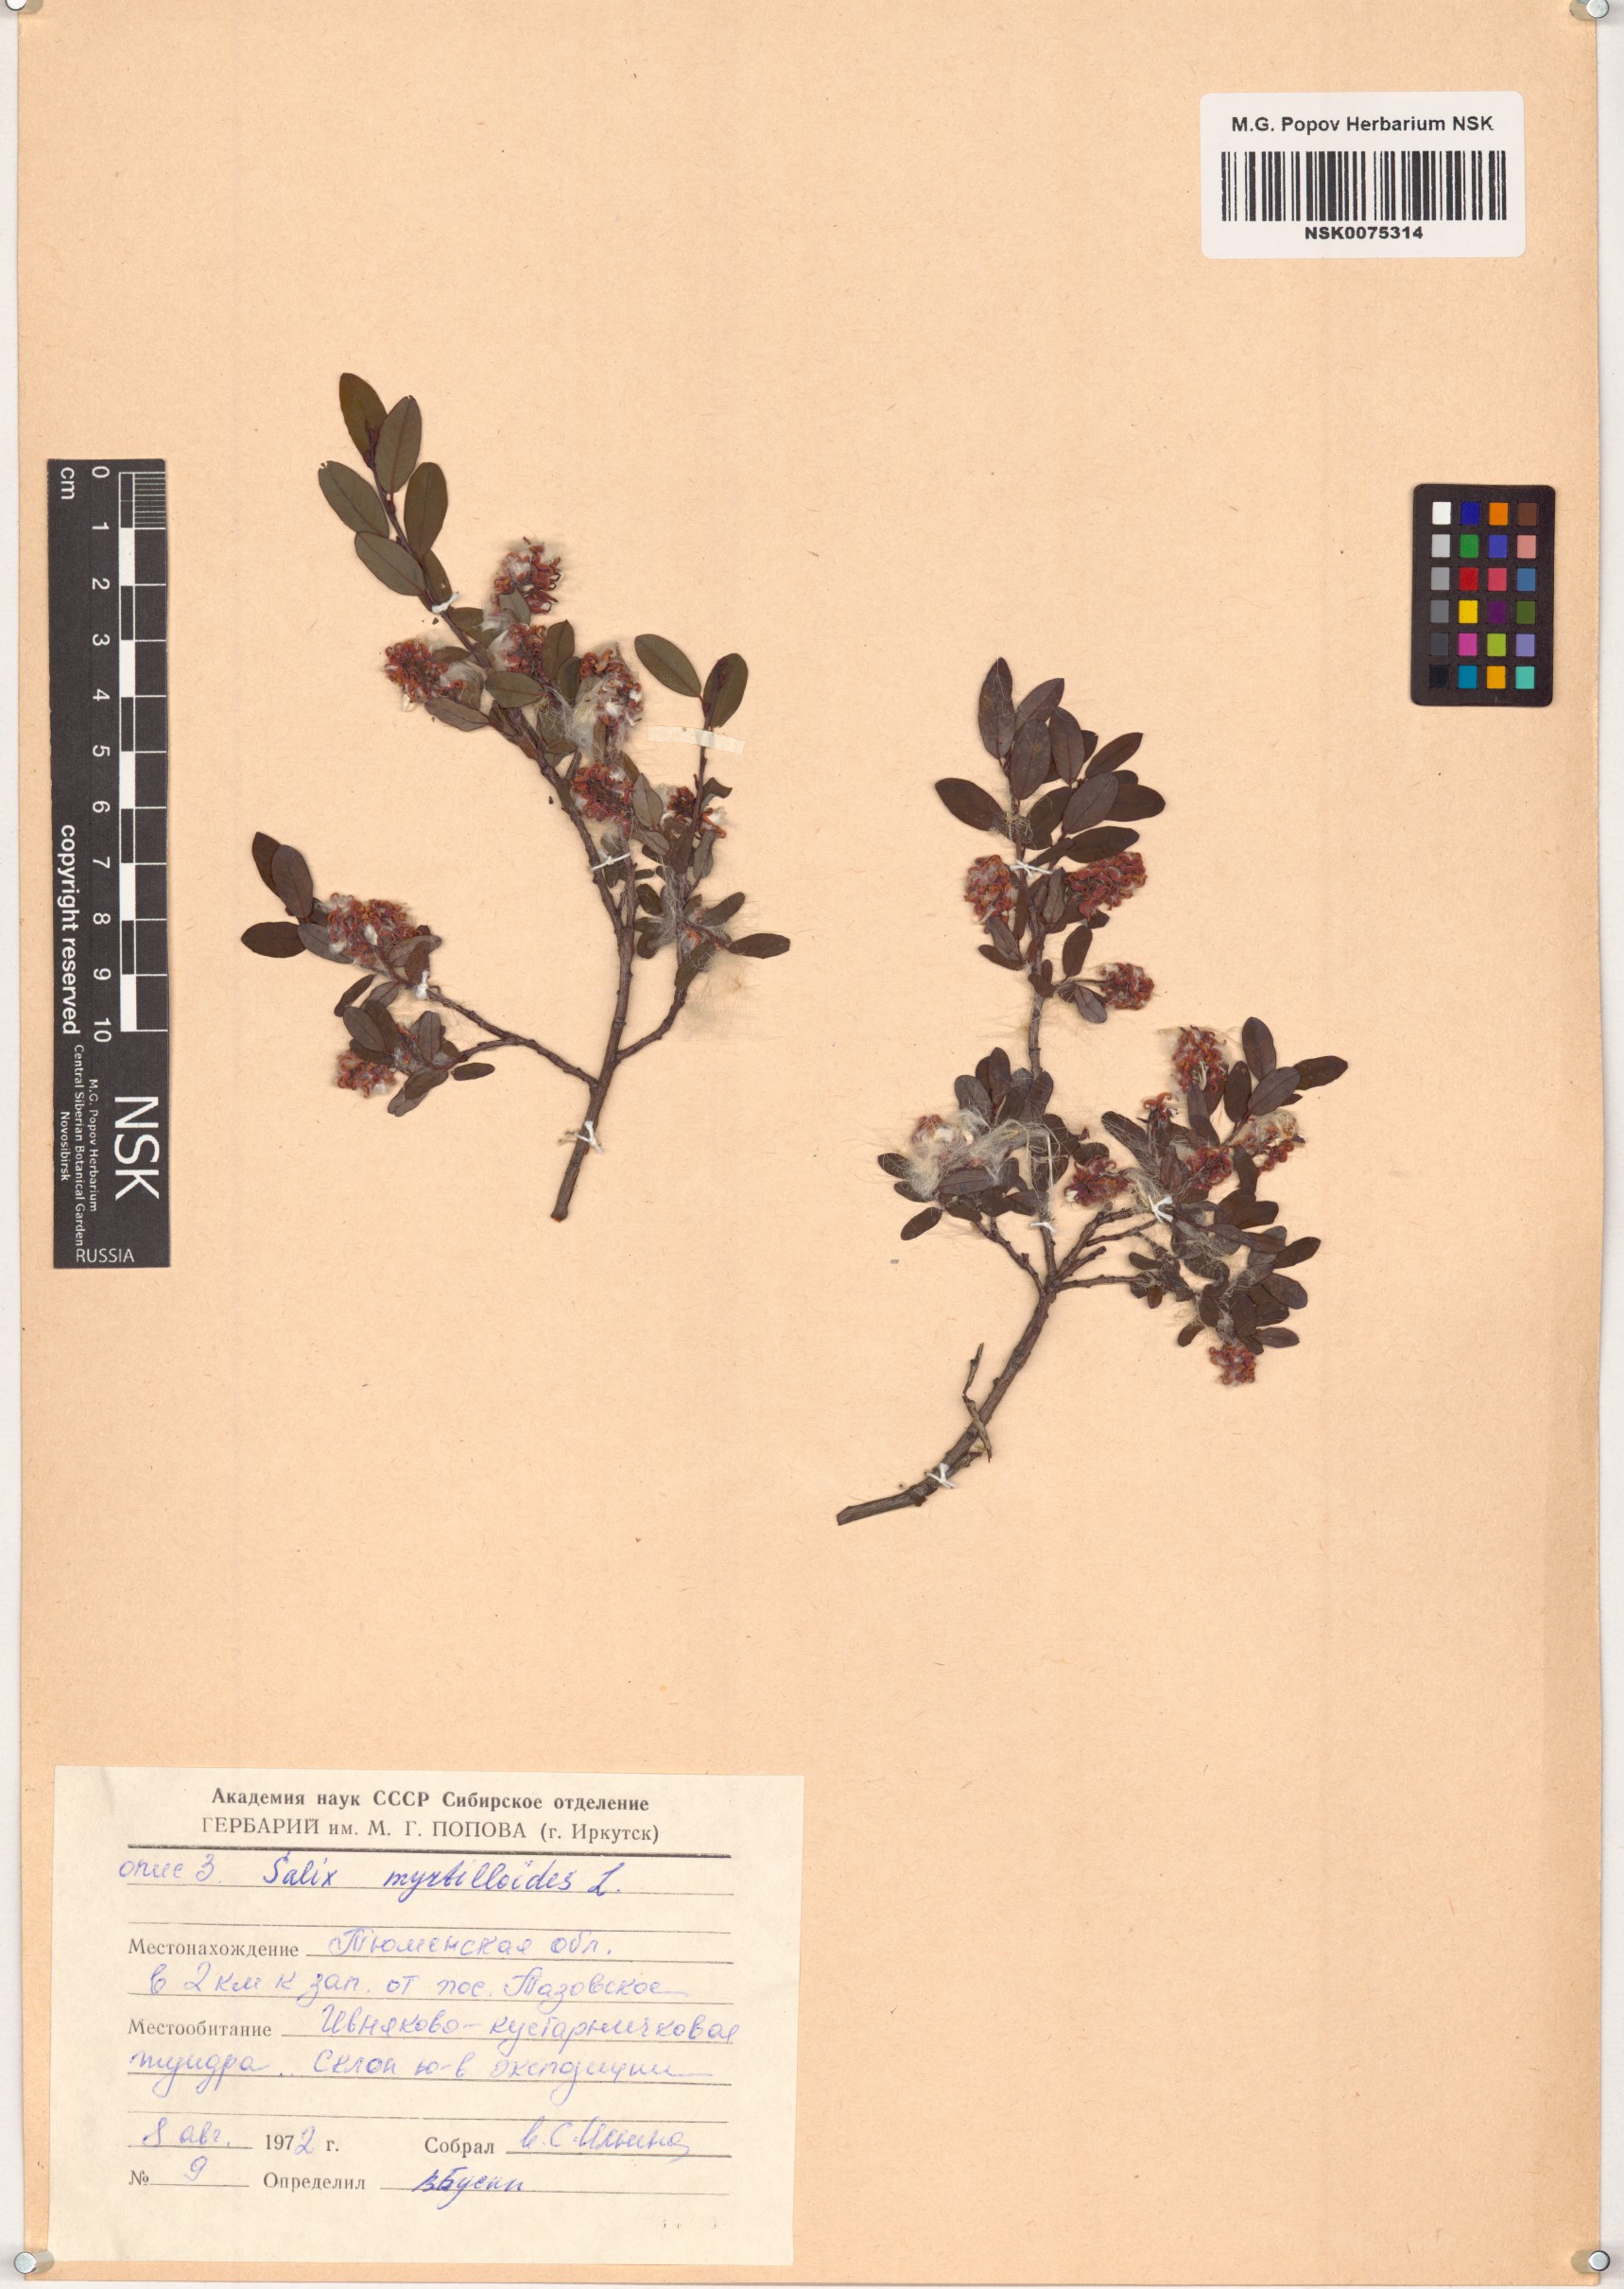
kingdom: Plantae
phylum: Tracheophyta
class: Magnoliopsida
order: Malpighiales
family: Salicaceae
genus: Salix
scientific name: Salix myrtilloides
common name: Myrtle-leaved willow
